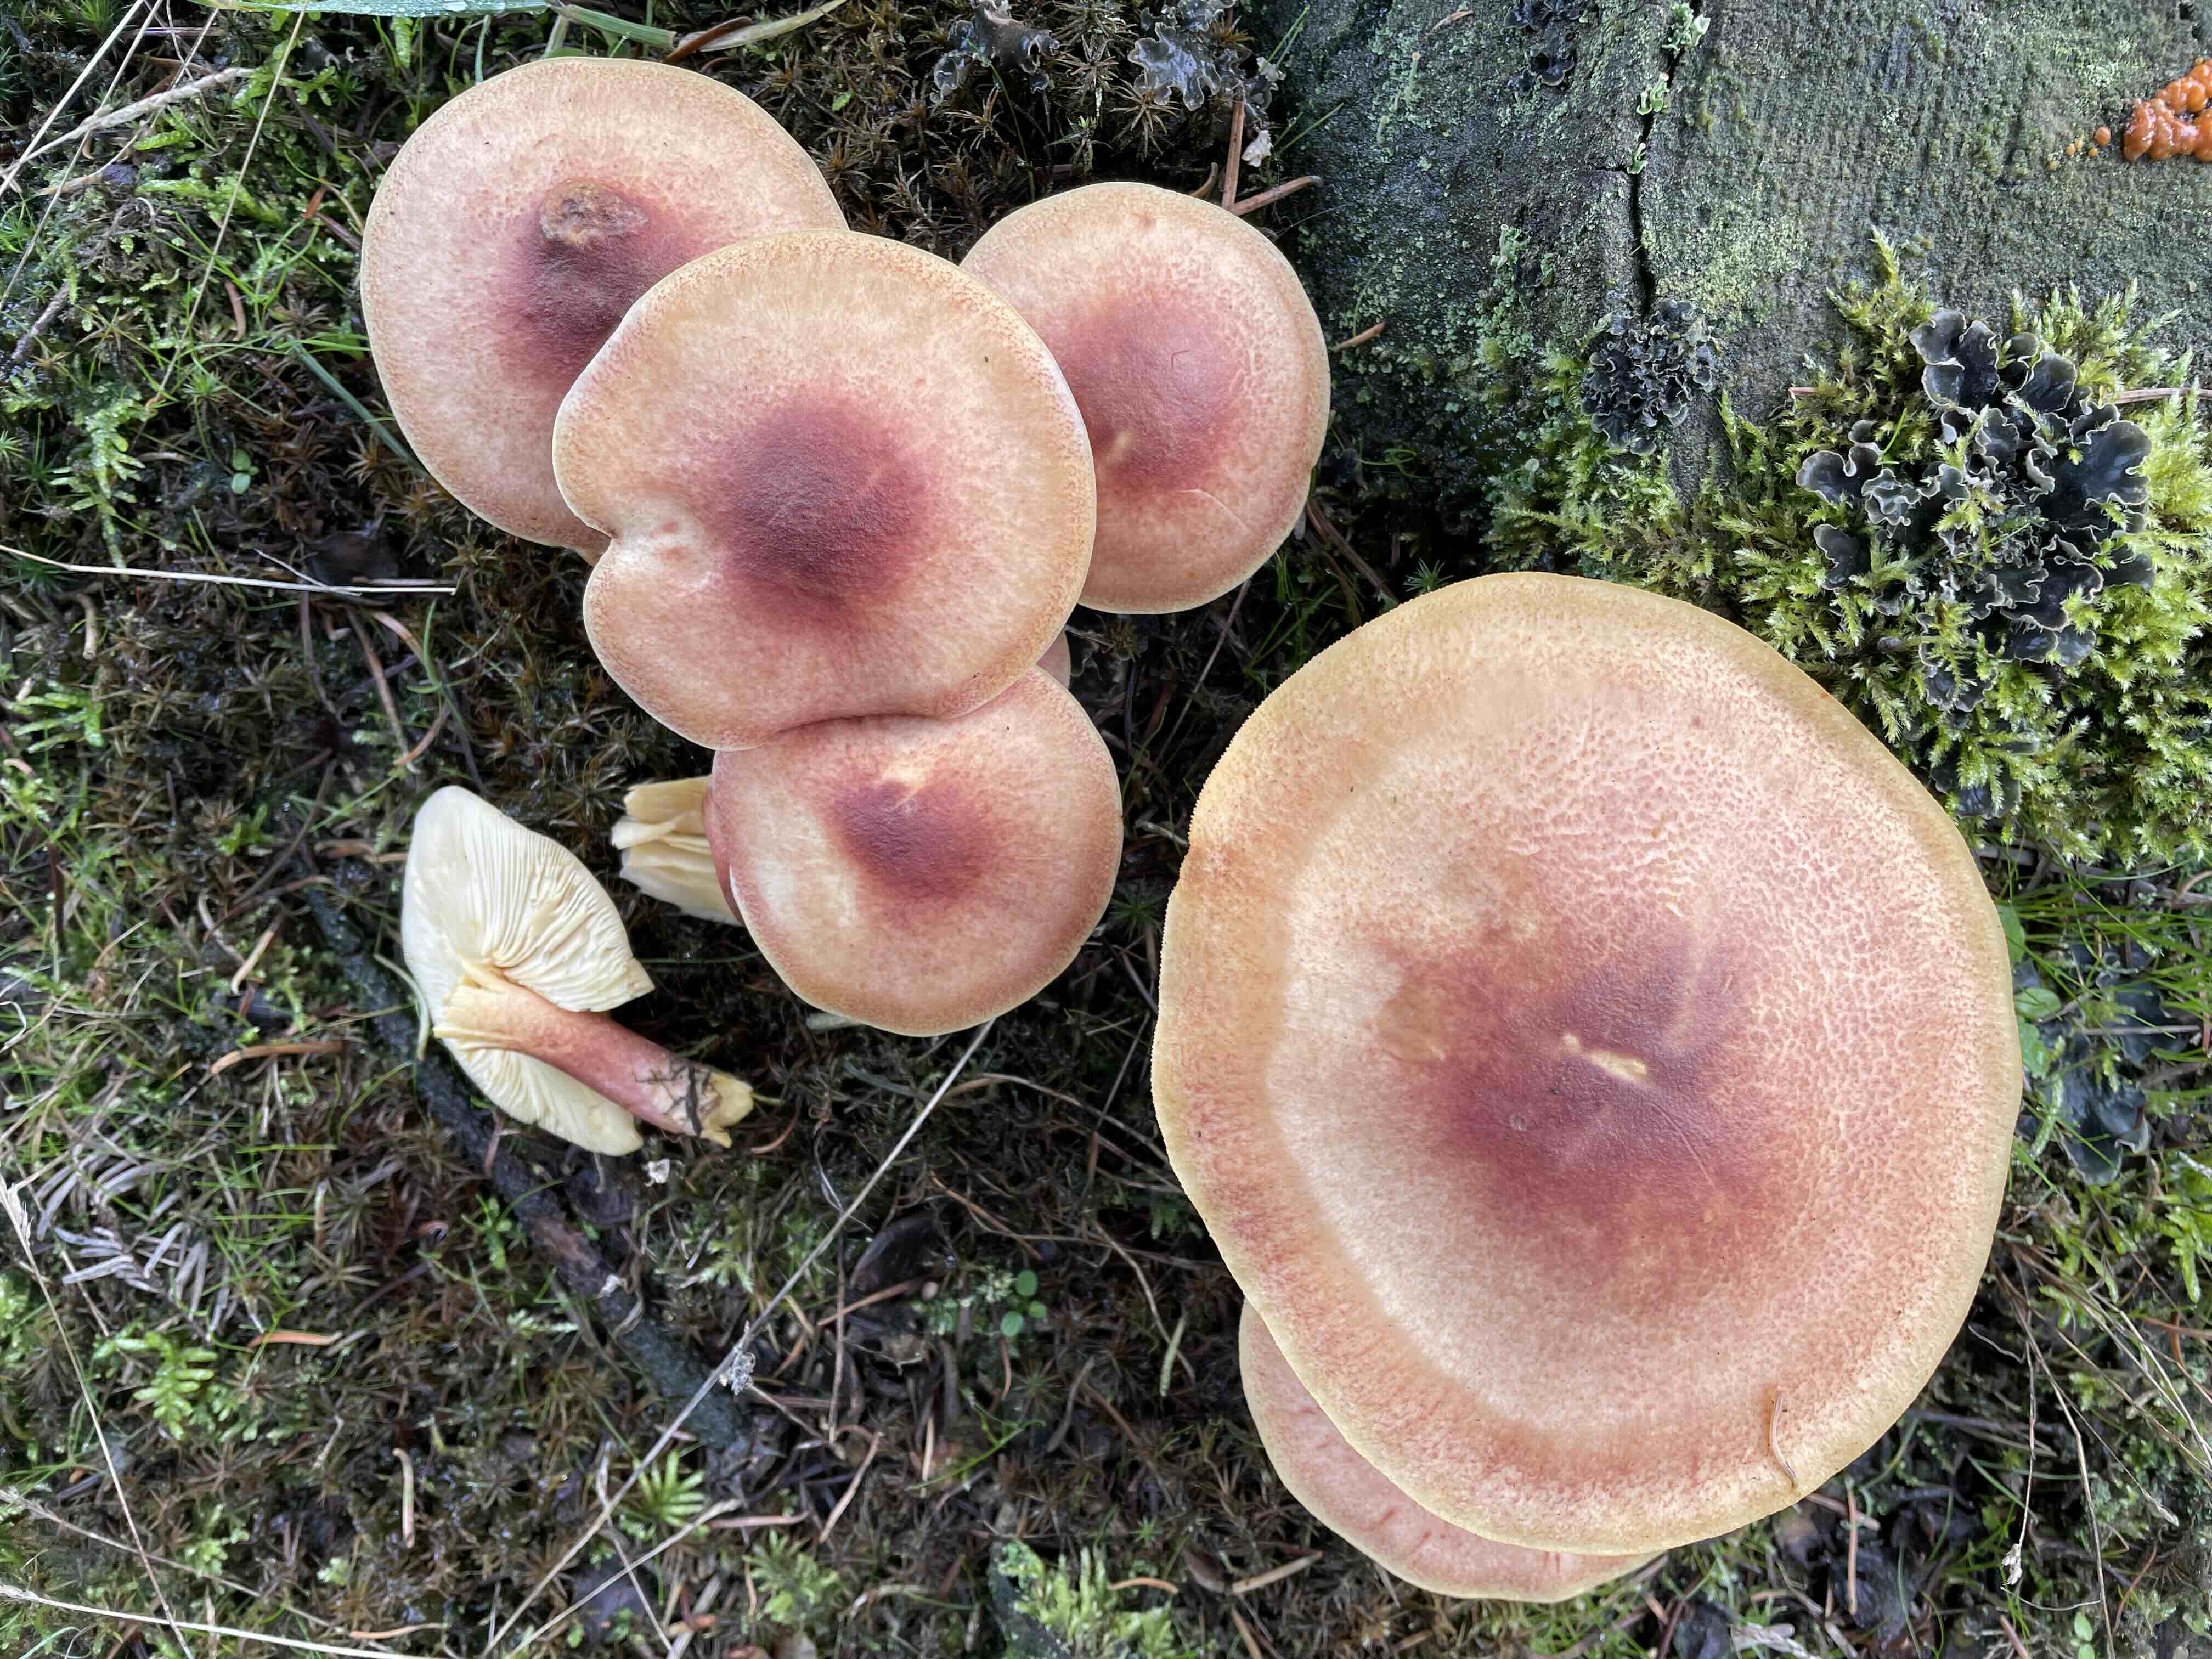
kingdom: Fungi
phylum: Basidiomycota
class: Agaricomycetes
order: Agaricales
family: Tricholomataceae
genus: Tricholomopsis
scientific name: Tricholomopsis rutilans
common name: purpur-væbnerhat
